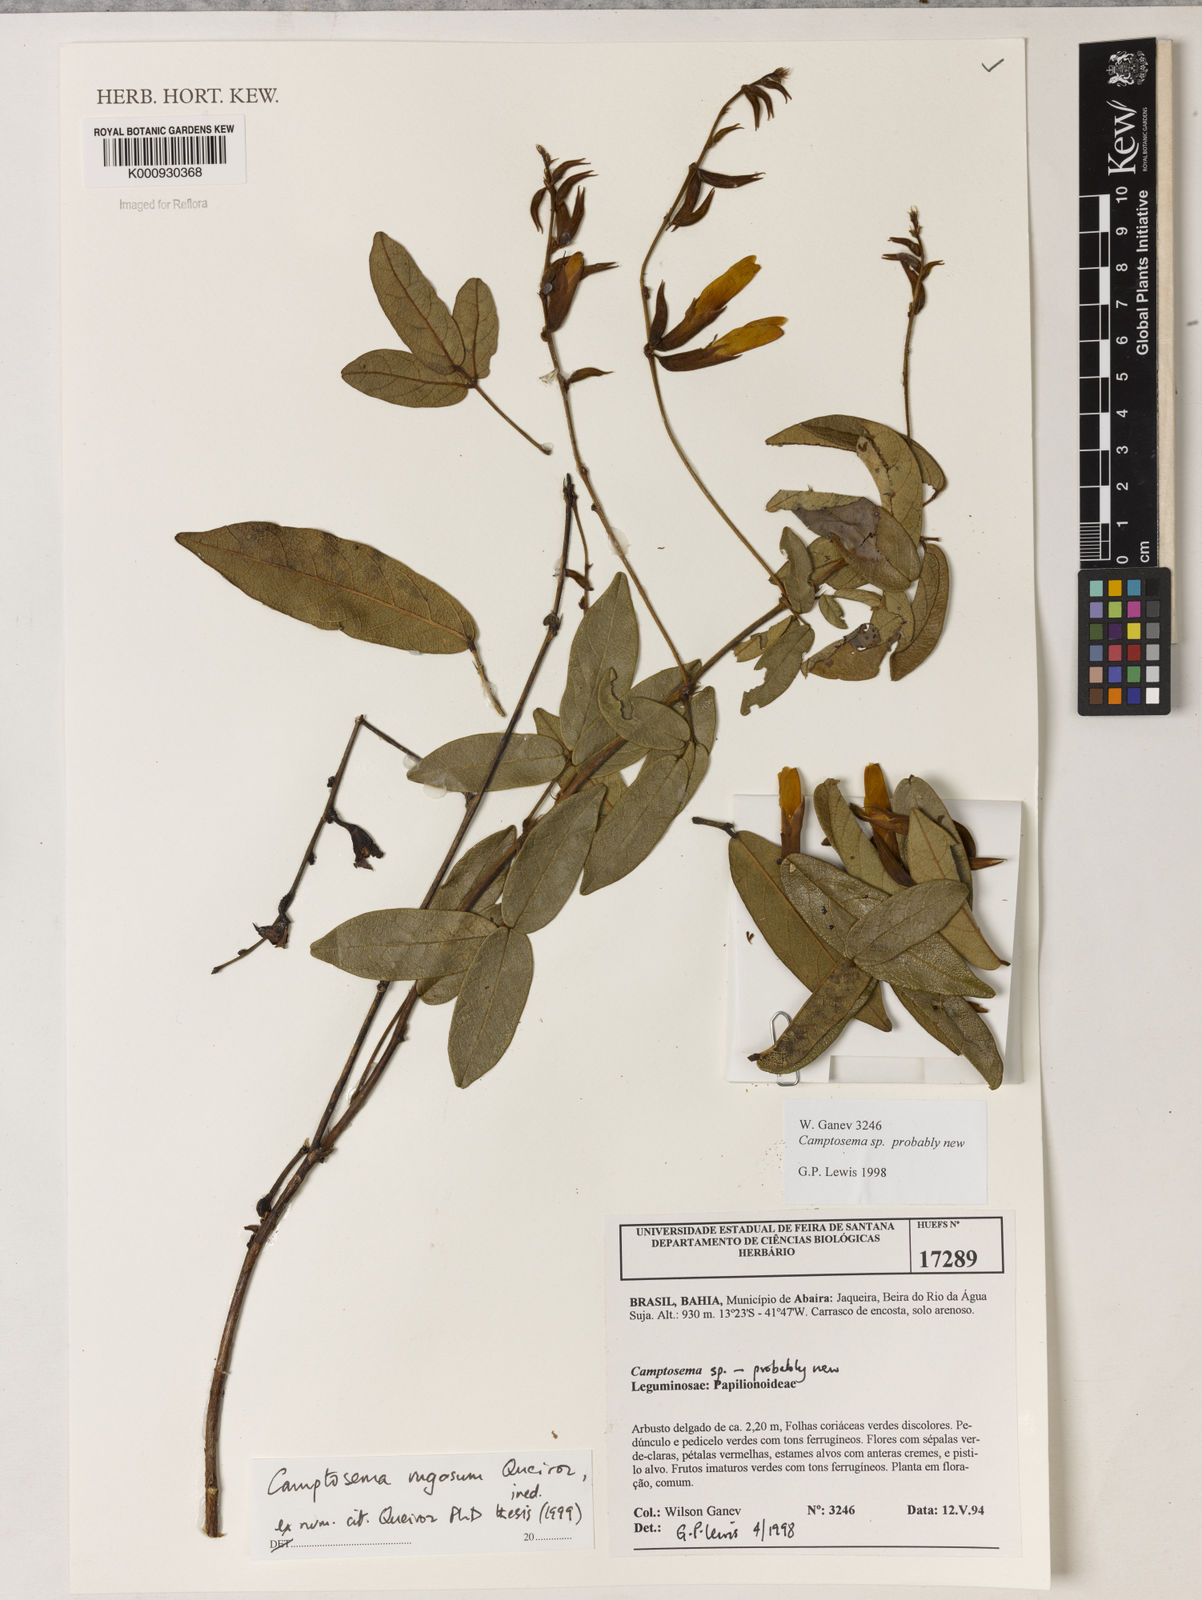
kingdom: Plantae
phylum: Tracheophyta
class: Magnoliopsida
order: Fabales
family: Fabaceae
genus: Camptosema
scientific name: Camptosema
